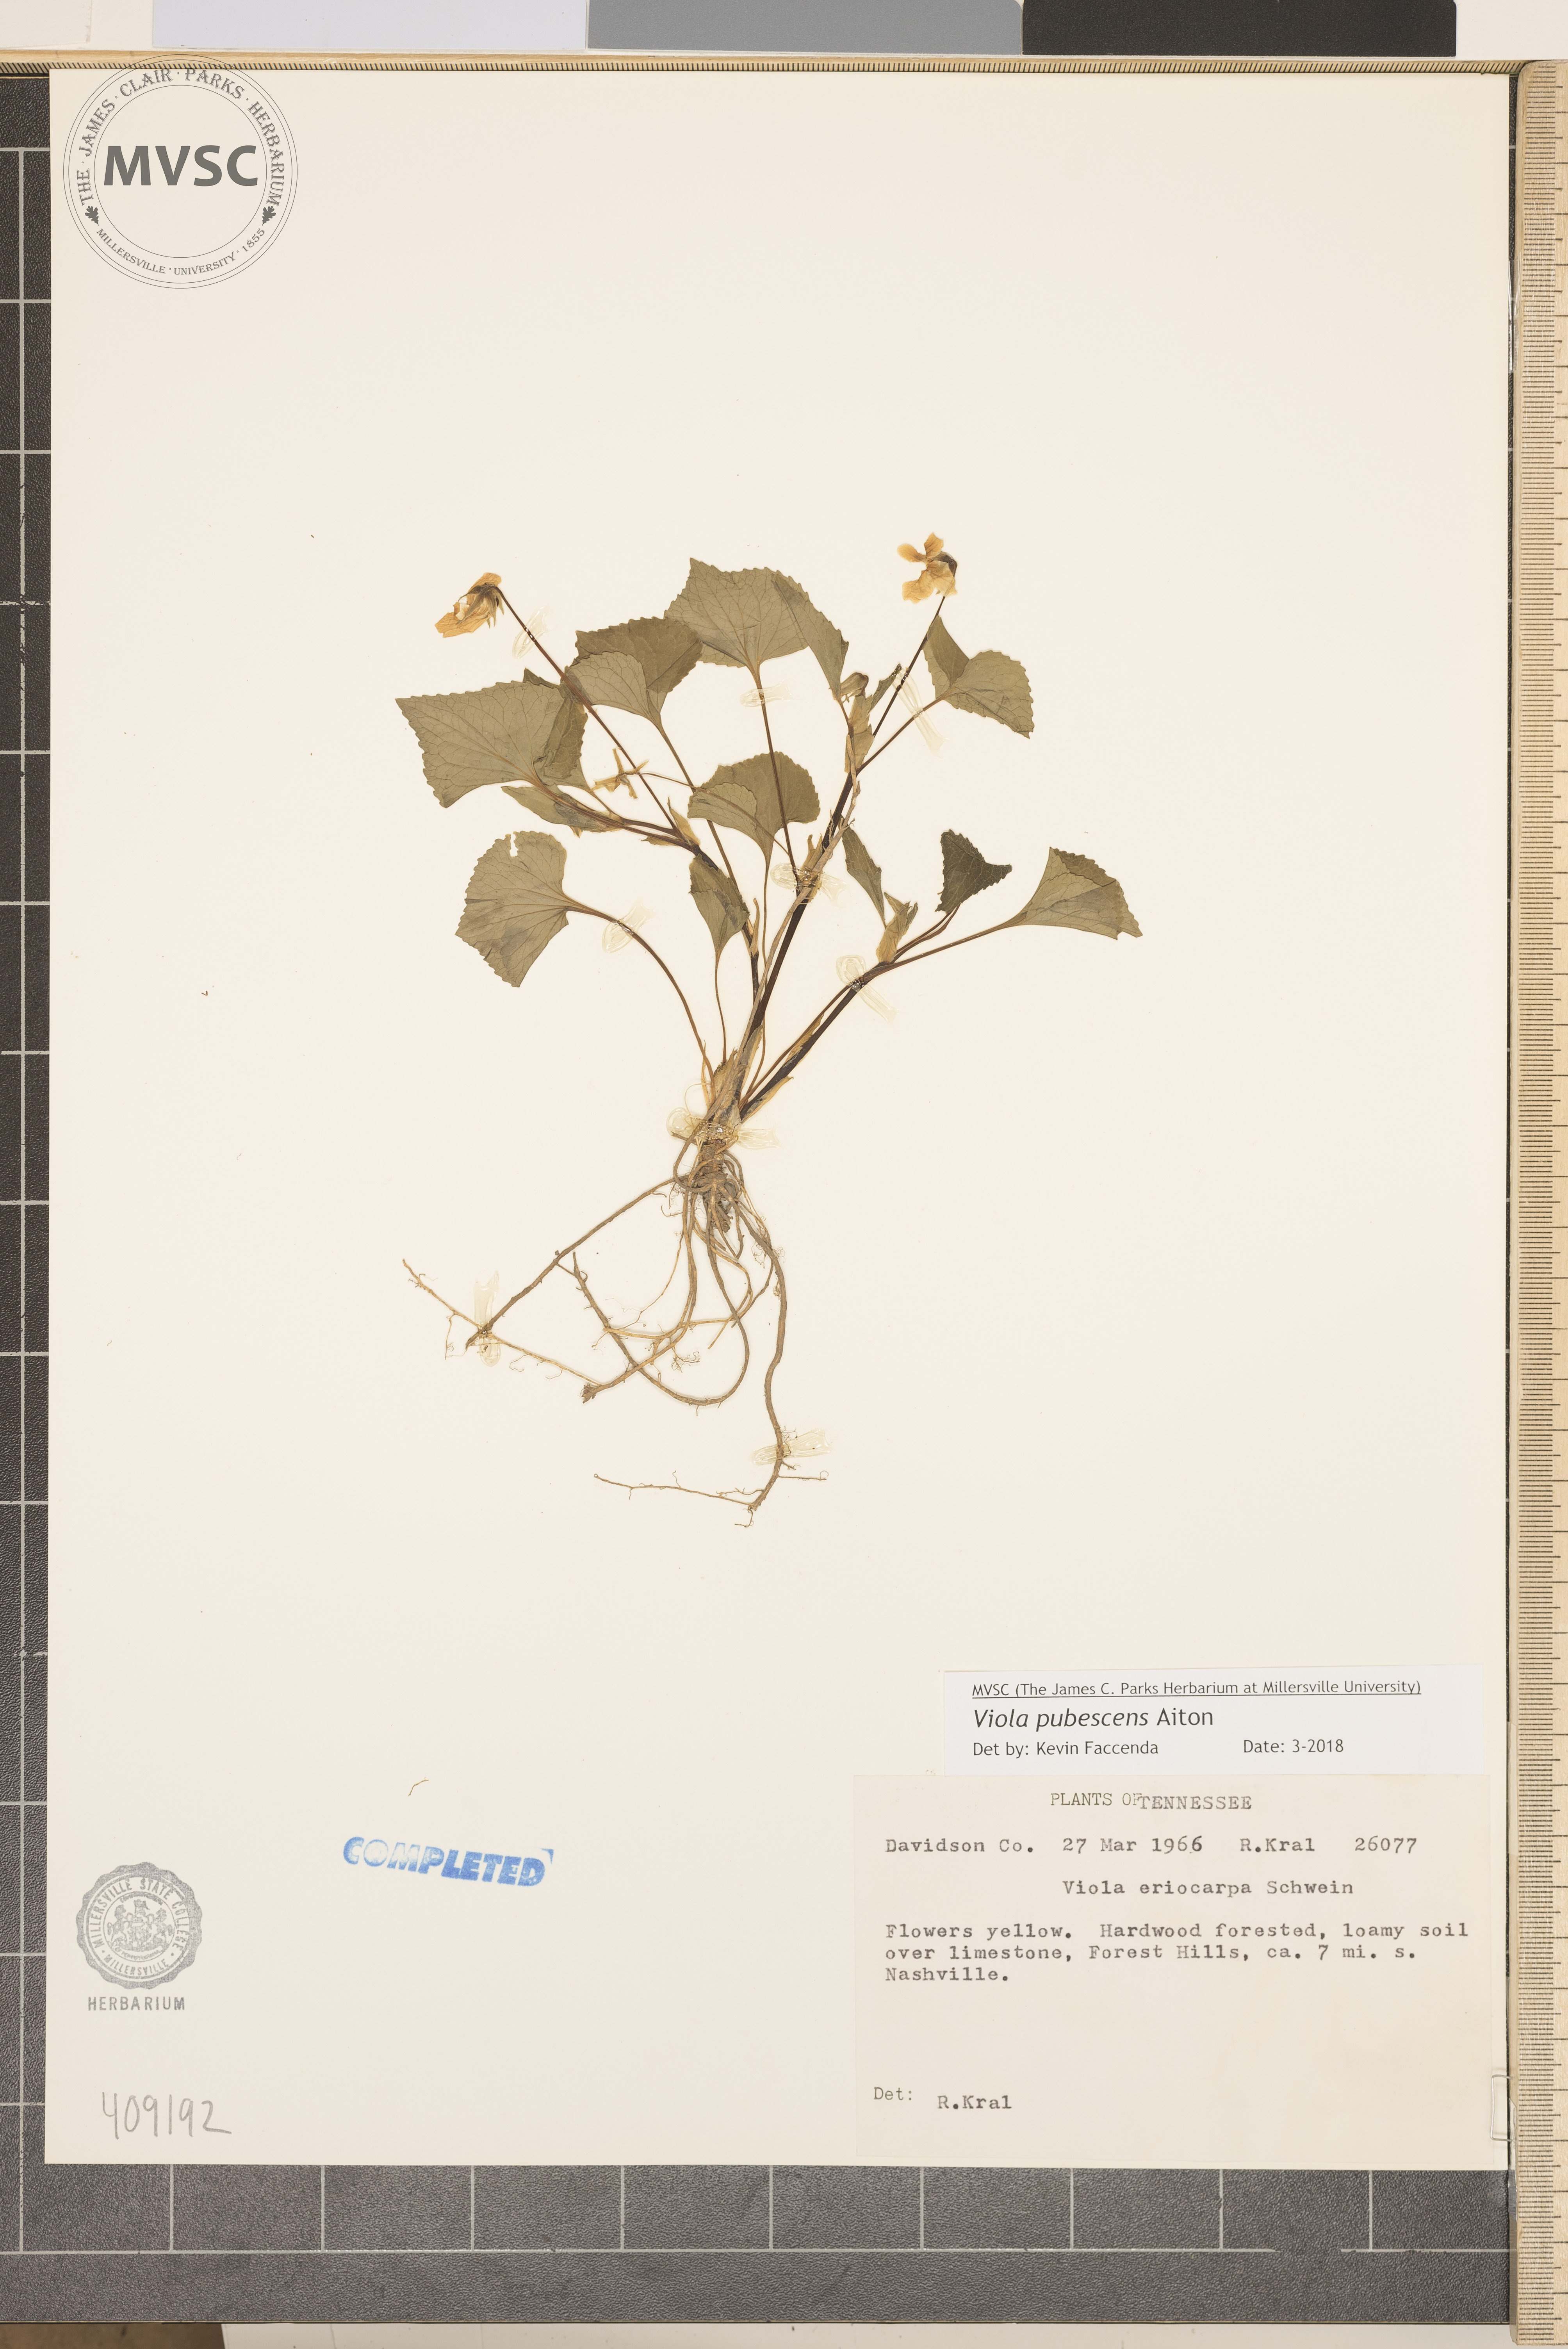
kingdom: Plantae
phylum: Tracheophyta
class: Magnoliopsida
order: Malpighiales
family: Violaceae
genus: Viola
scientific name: Viola pubescens
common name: Yellow forest violet
